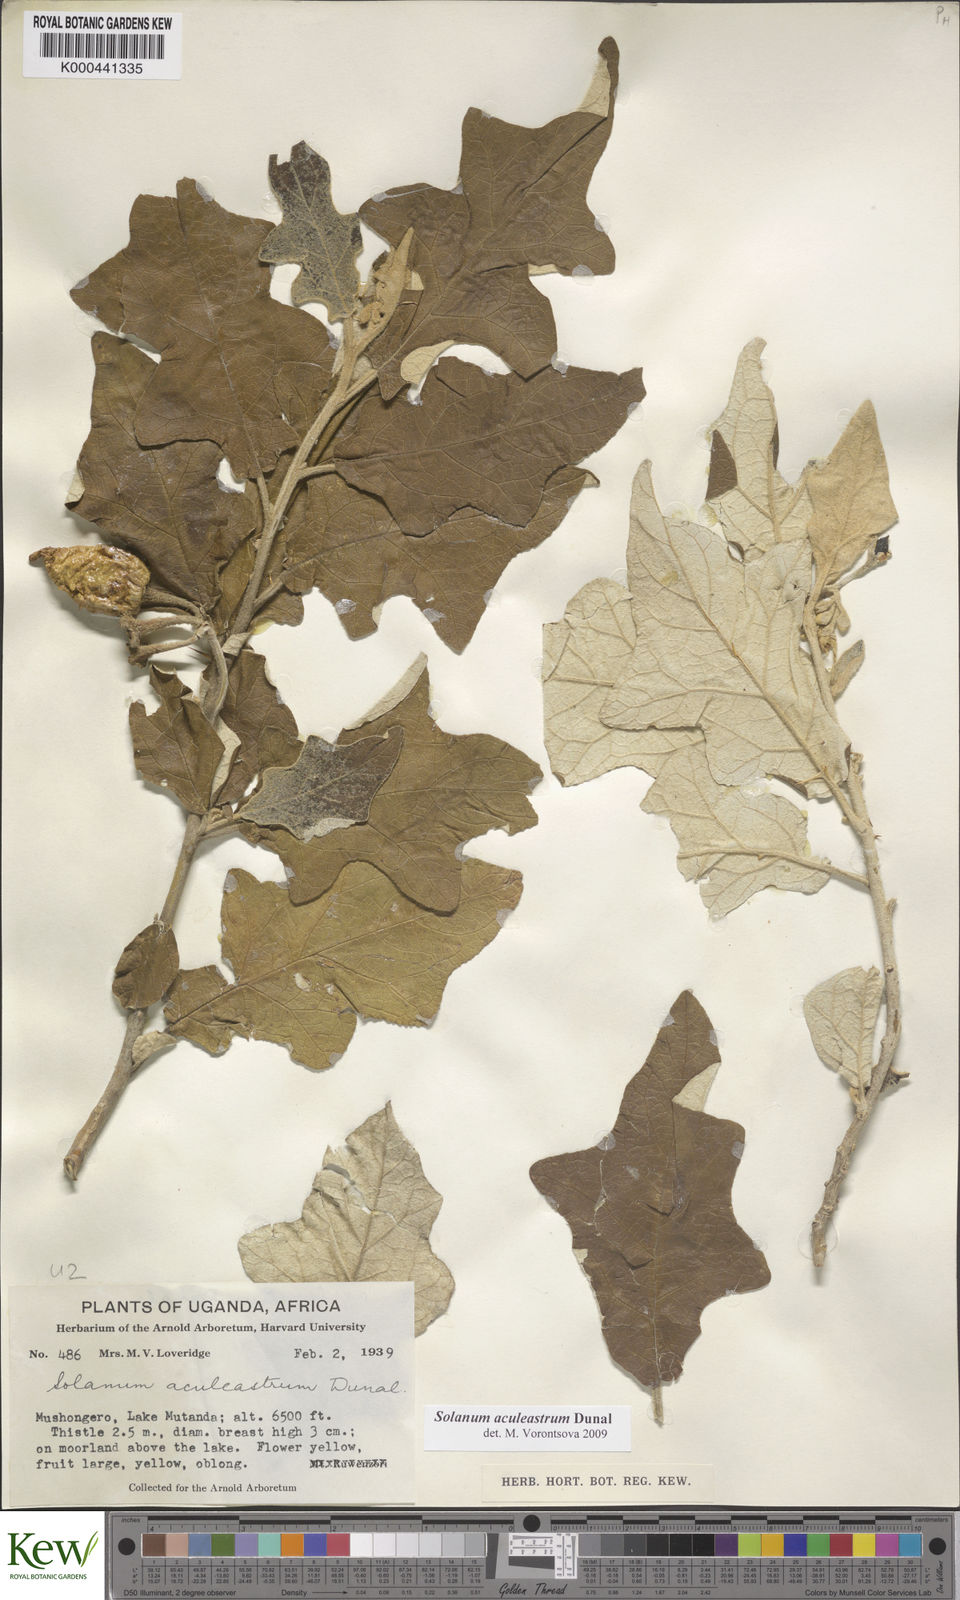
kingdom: Plantae
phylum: Tracheophyta
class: Magnoliopsida
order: Solanales
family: Solanaceae
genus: Solanum
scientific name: Solanum aculeastrum
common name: Goat bitter-apple
